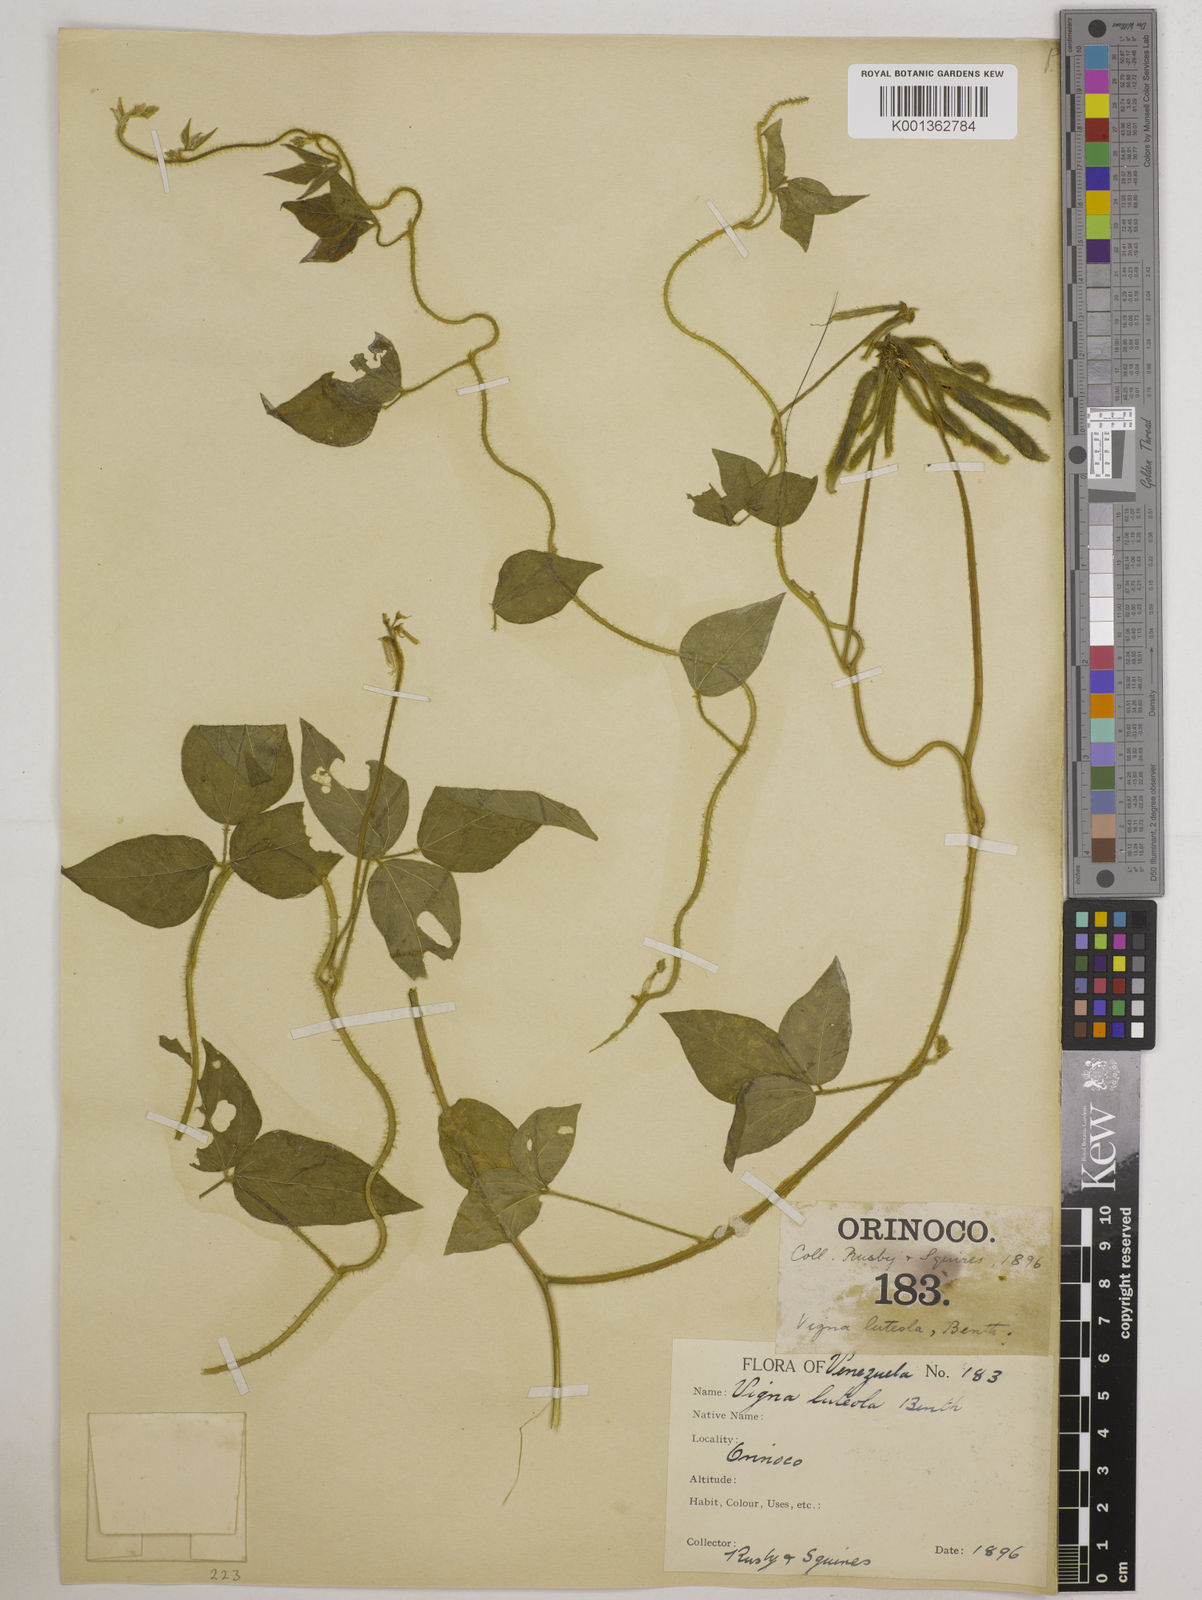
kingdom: Plantae
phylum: Tracheophyta
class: Magnoliopsida
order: Fabales
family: Fabaceae
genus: Vigna
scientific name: Vigna luteola
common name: Hairypod cowpea
